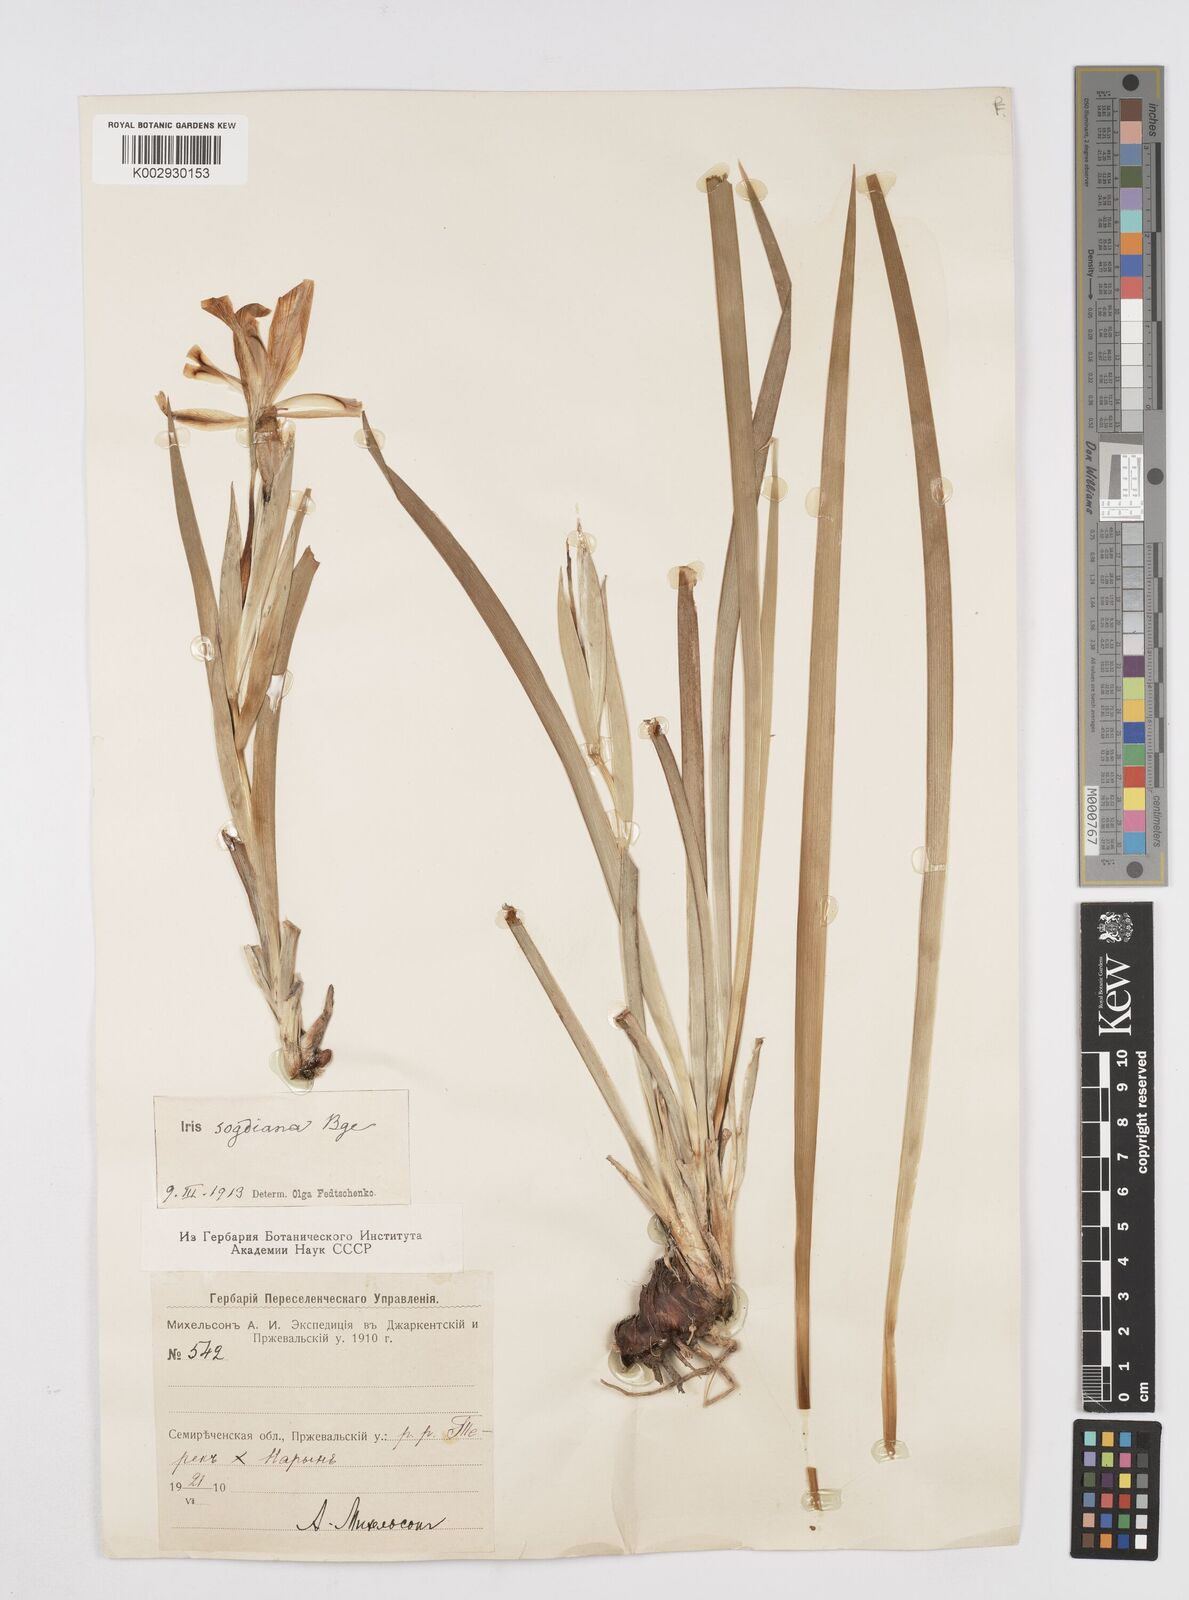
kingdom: Plantae
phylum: Tracheophyta
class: Liliopsida
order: Asparagales
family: Iridaceae
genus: Iris
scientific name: Iris halophila
